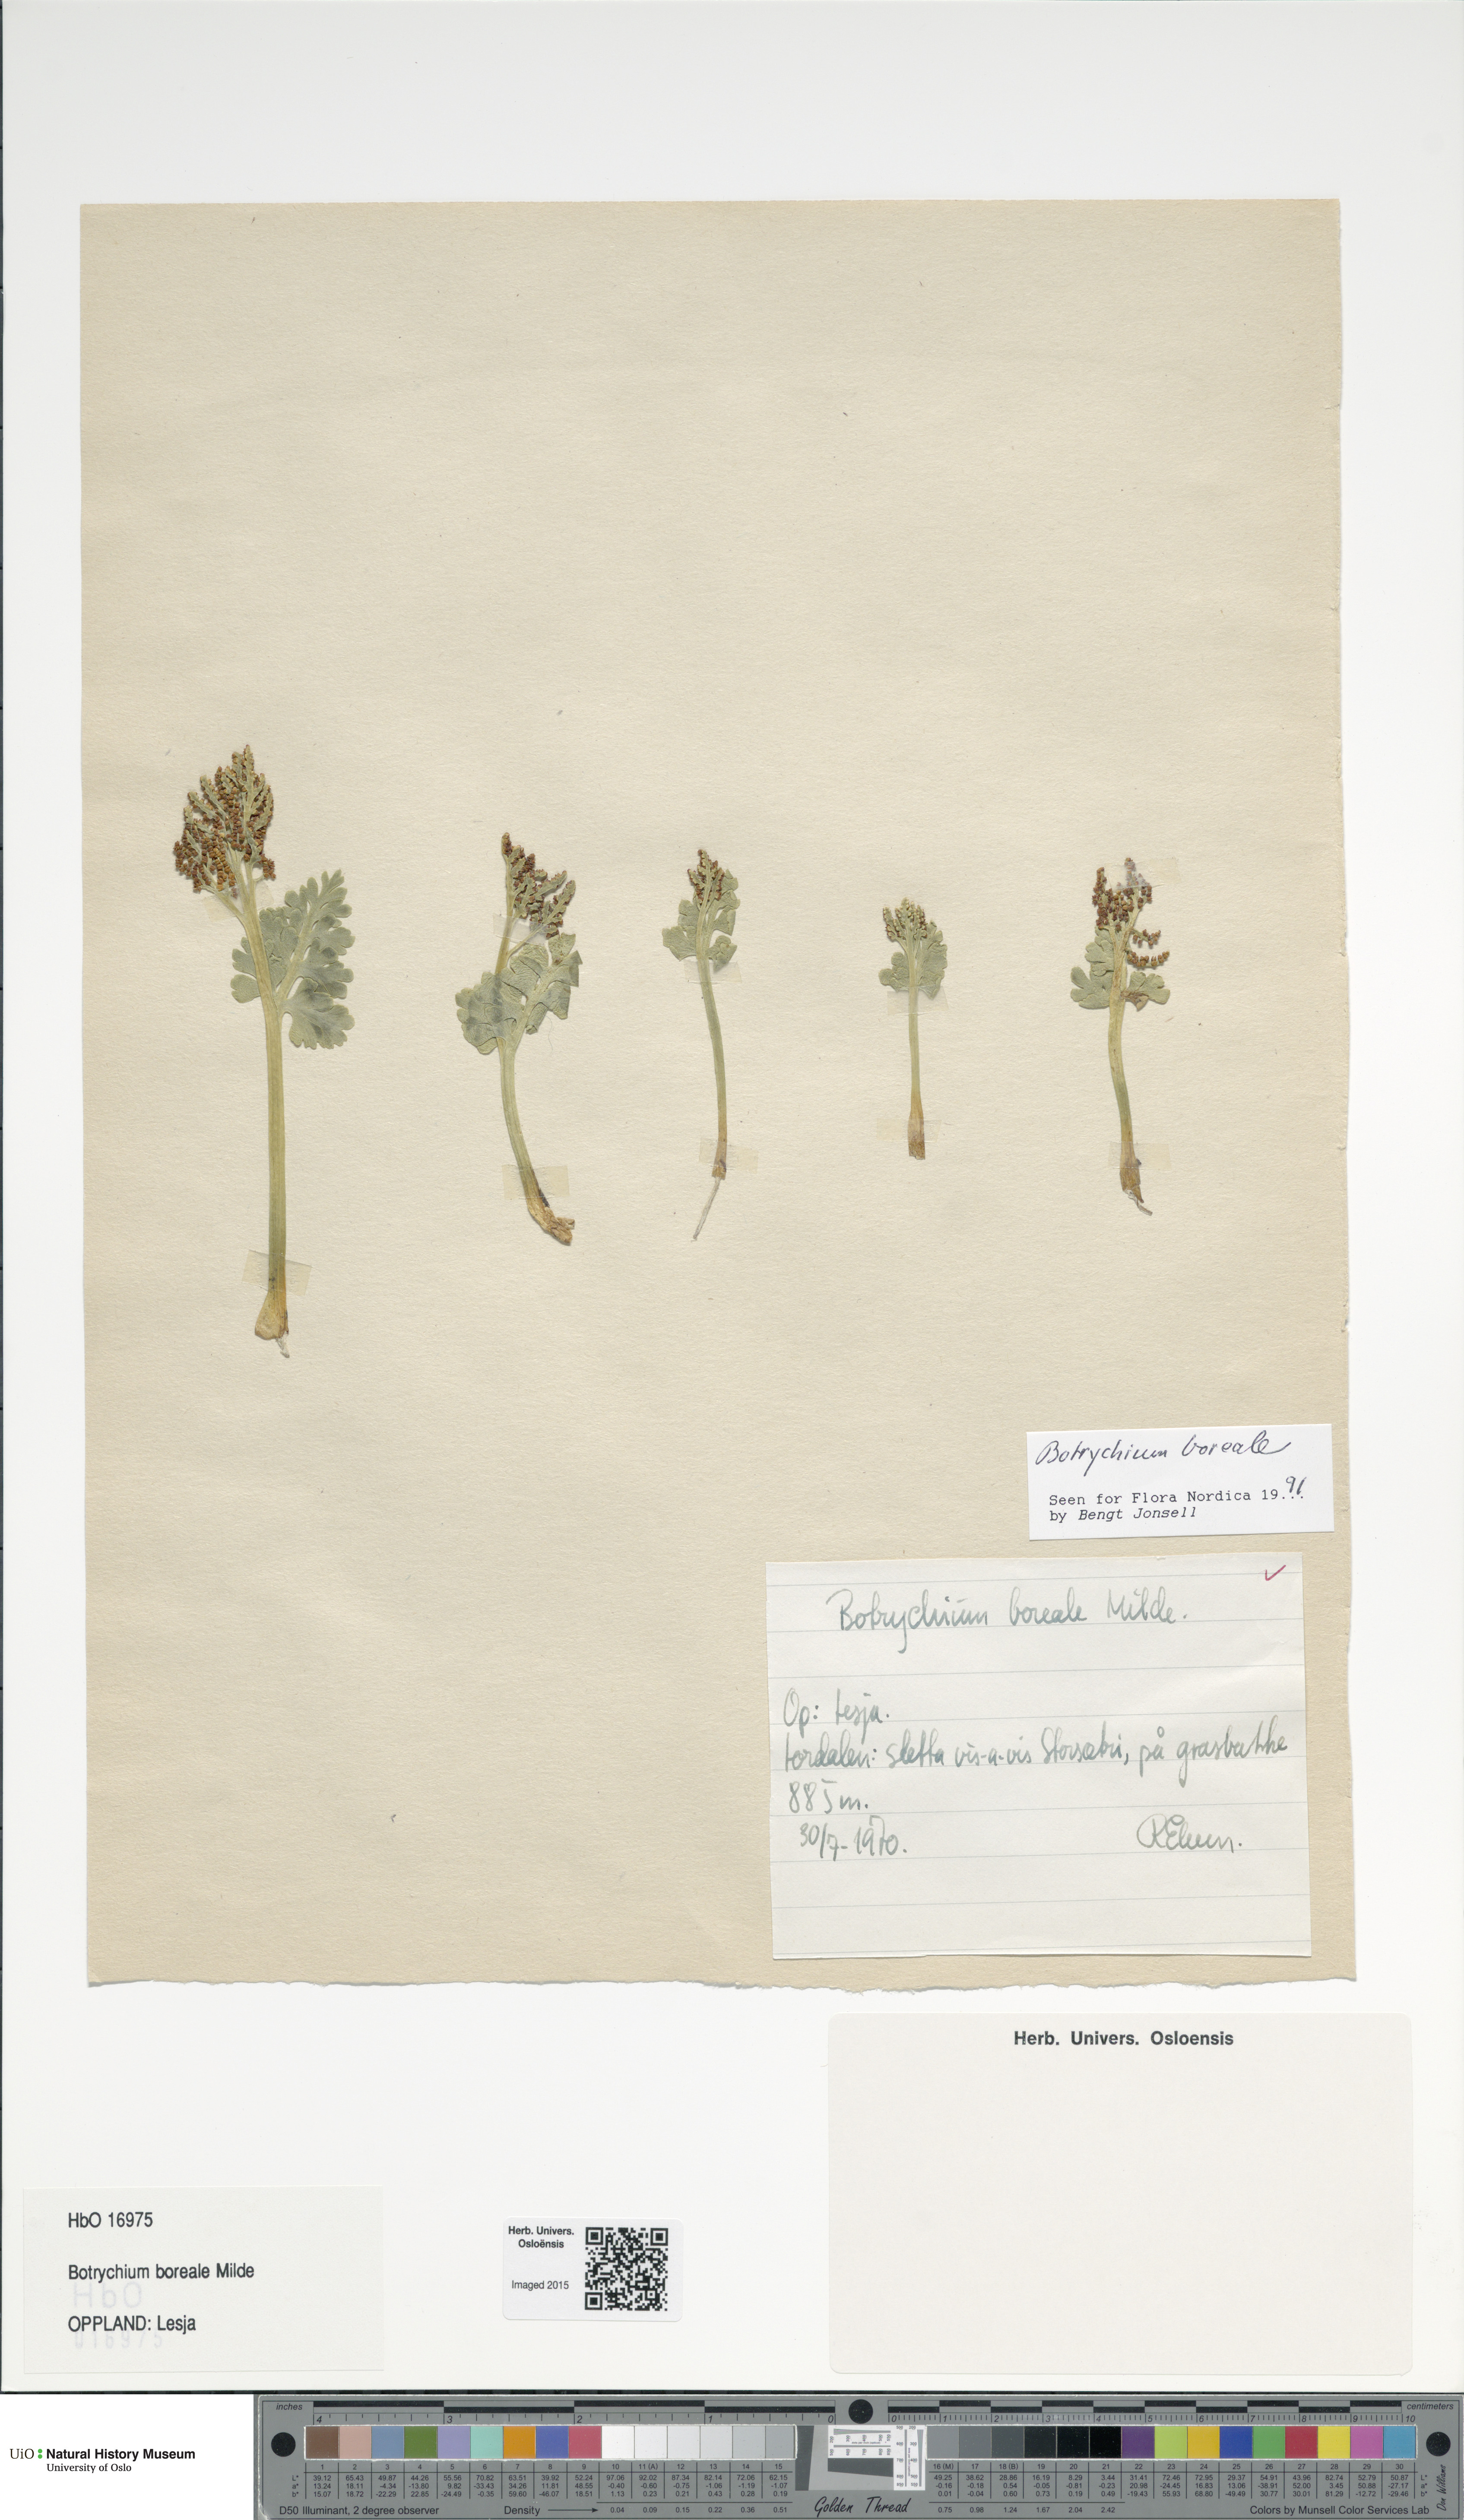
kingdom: Plantae
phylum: Tracheophyta
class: Polypodiopsida
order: Ophioglossales
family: Ophioglossaceae
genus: Botrychium
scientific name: Botrychium boreale
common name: Boreal moonwort
